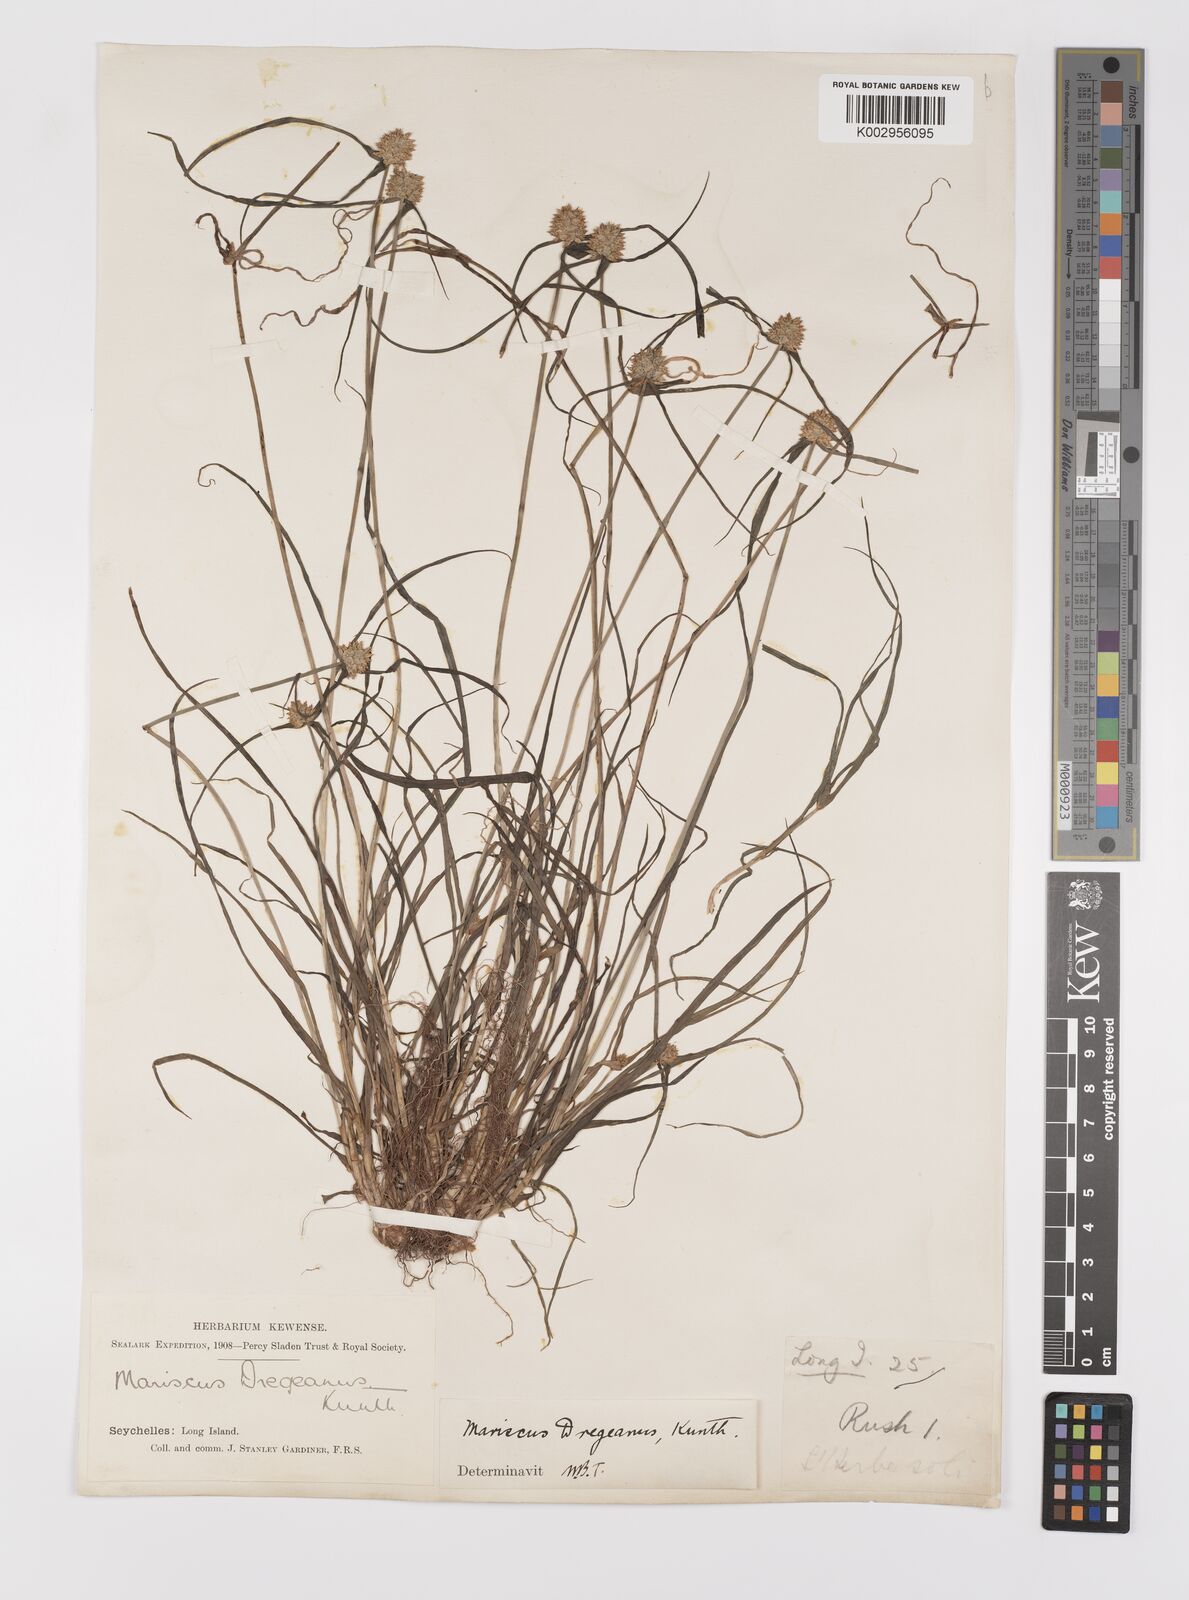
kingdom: Plantae
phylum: Tracheophyta
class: Liliopsida
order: Poales
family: Cyperaceae
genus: Cyperus
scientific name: Cyperus dubius
